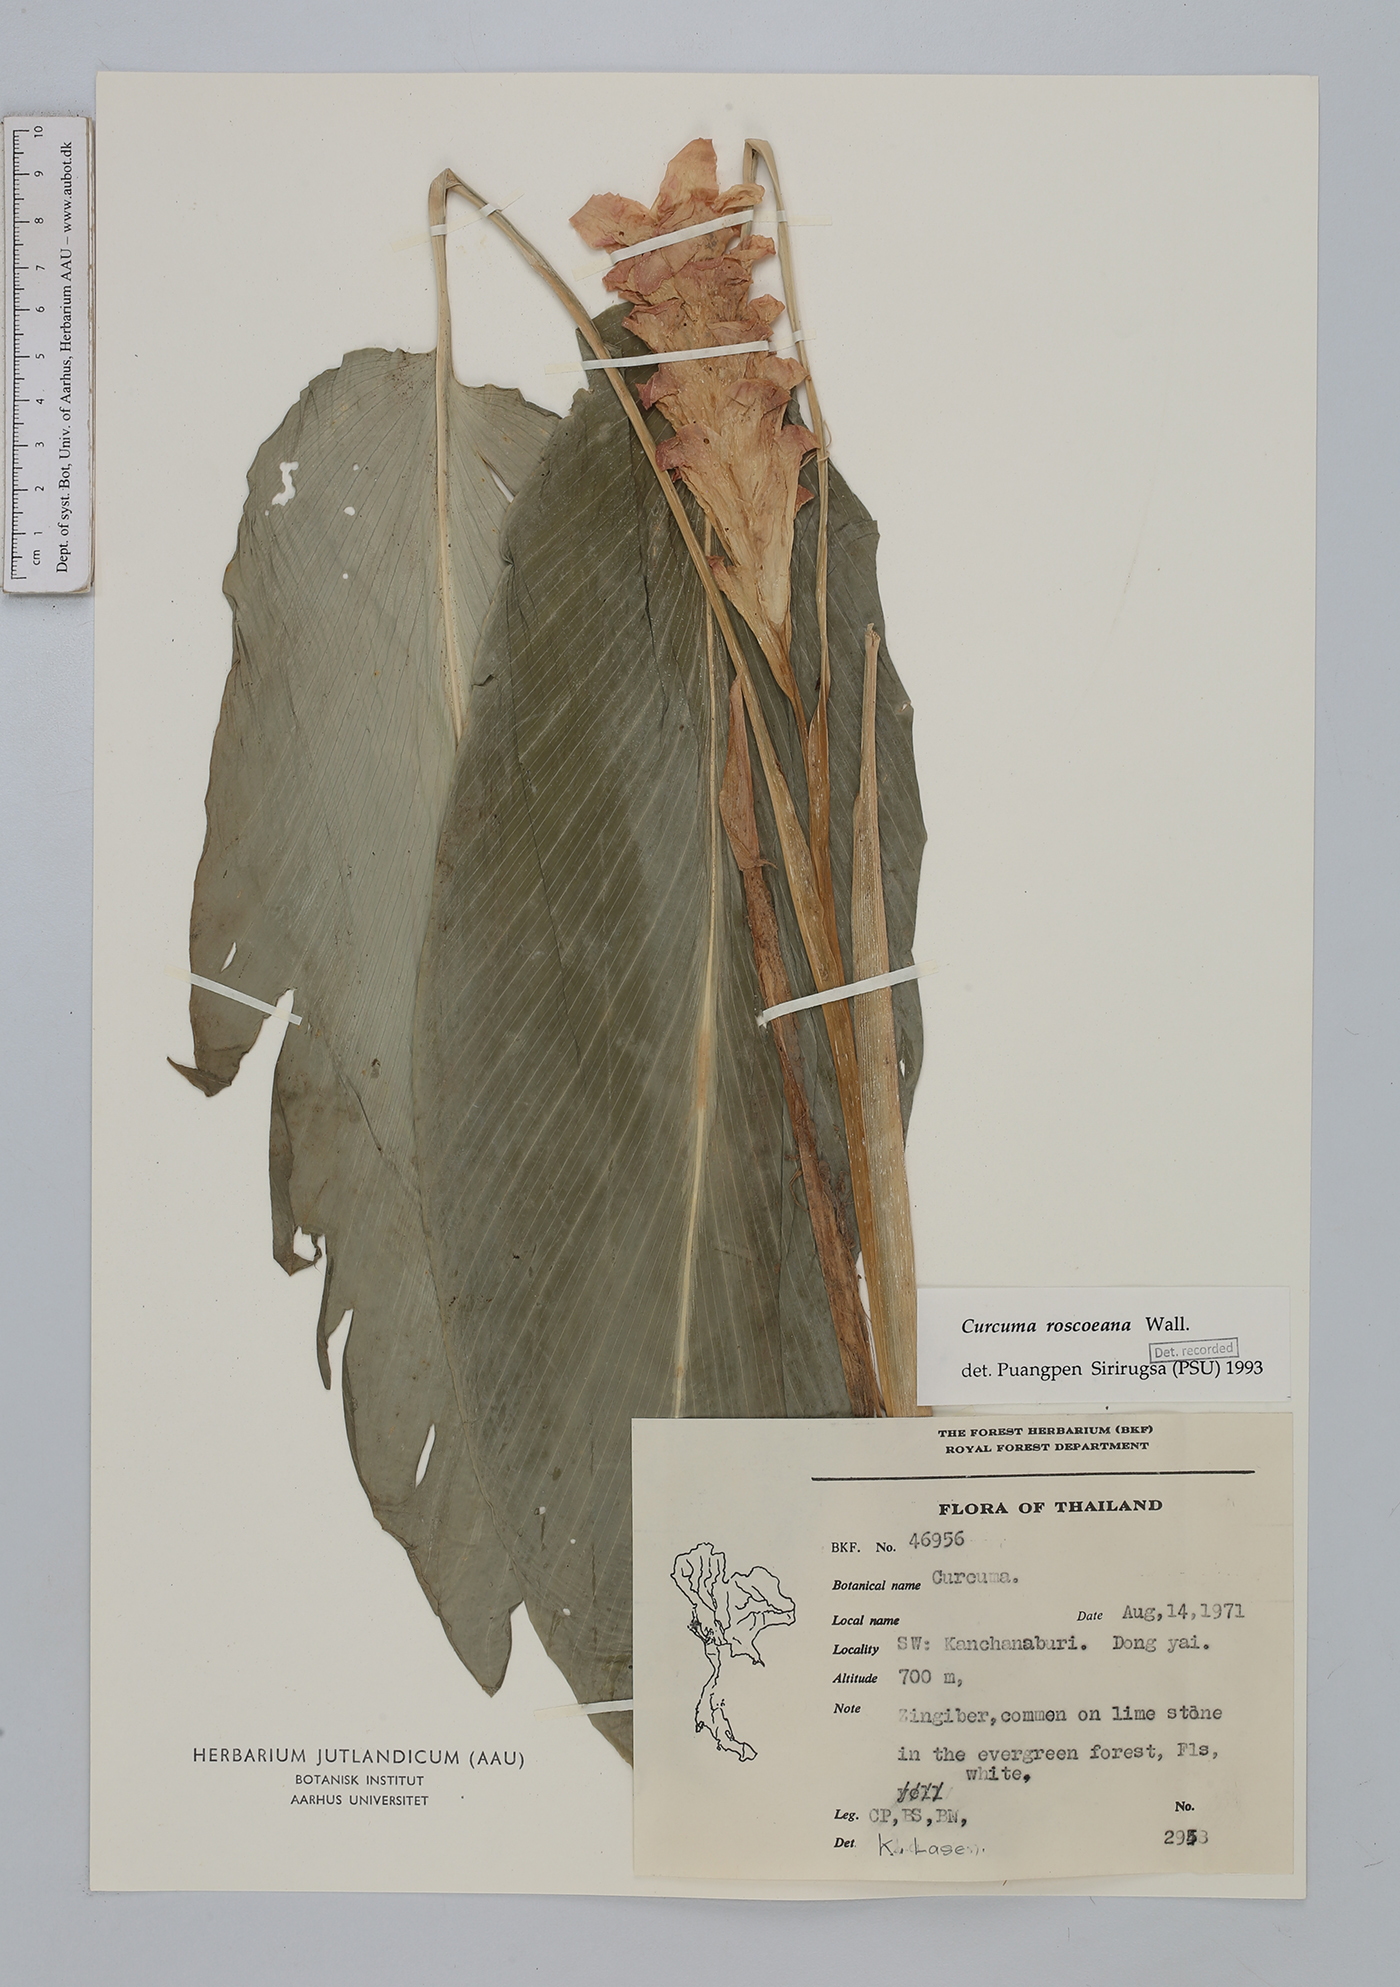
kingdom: Plantae
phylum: Tracheophyta
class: Liliopsida
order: Zingiberales
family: Zingiberaceae
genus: Curcuma
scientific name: Curcuma roscoeana
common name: Jewel of burma
